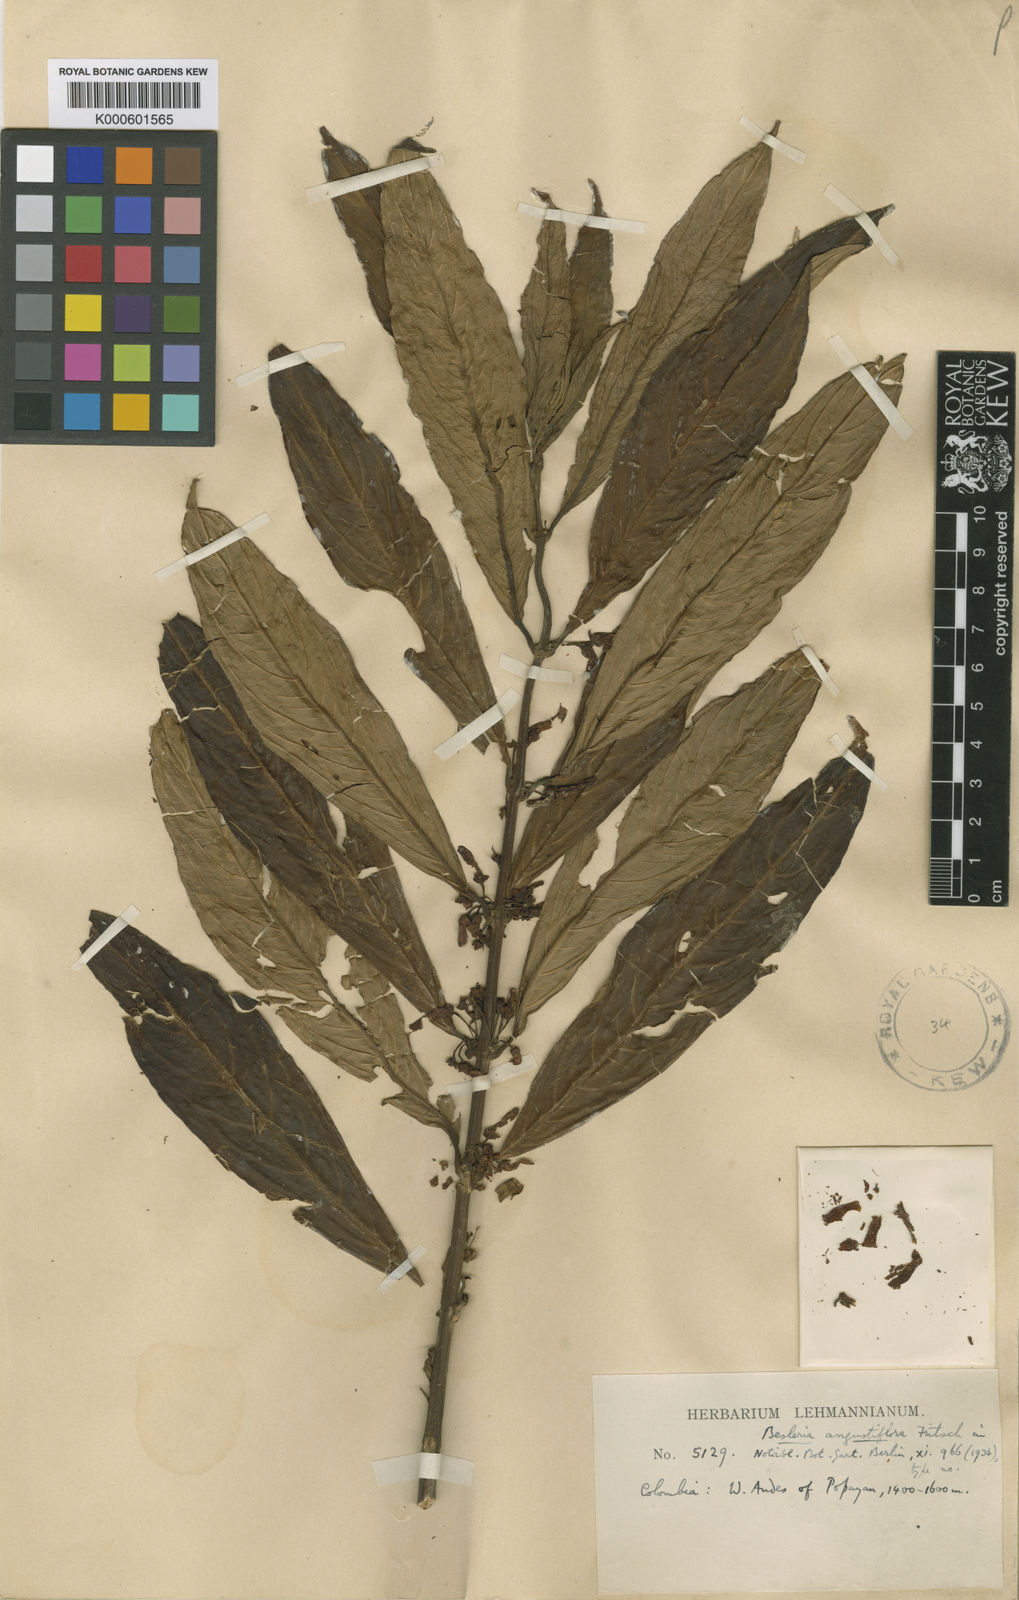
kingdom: Plantae
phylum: Tracheophyta
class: Magnoliopsida
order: Lamiales
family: Gesneriaceae
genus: Besleria
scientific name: Besleria angustiflora
